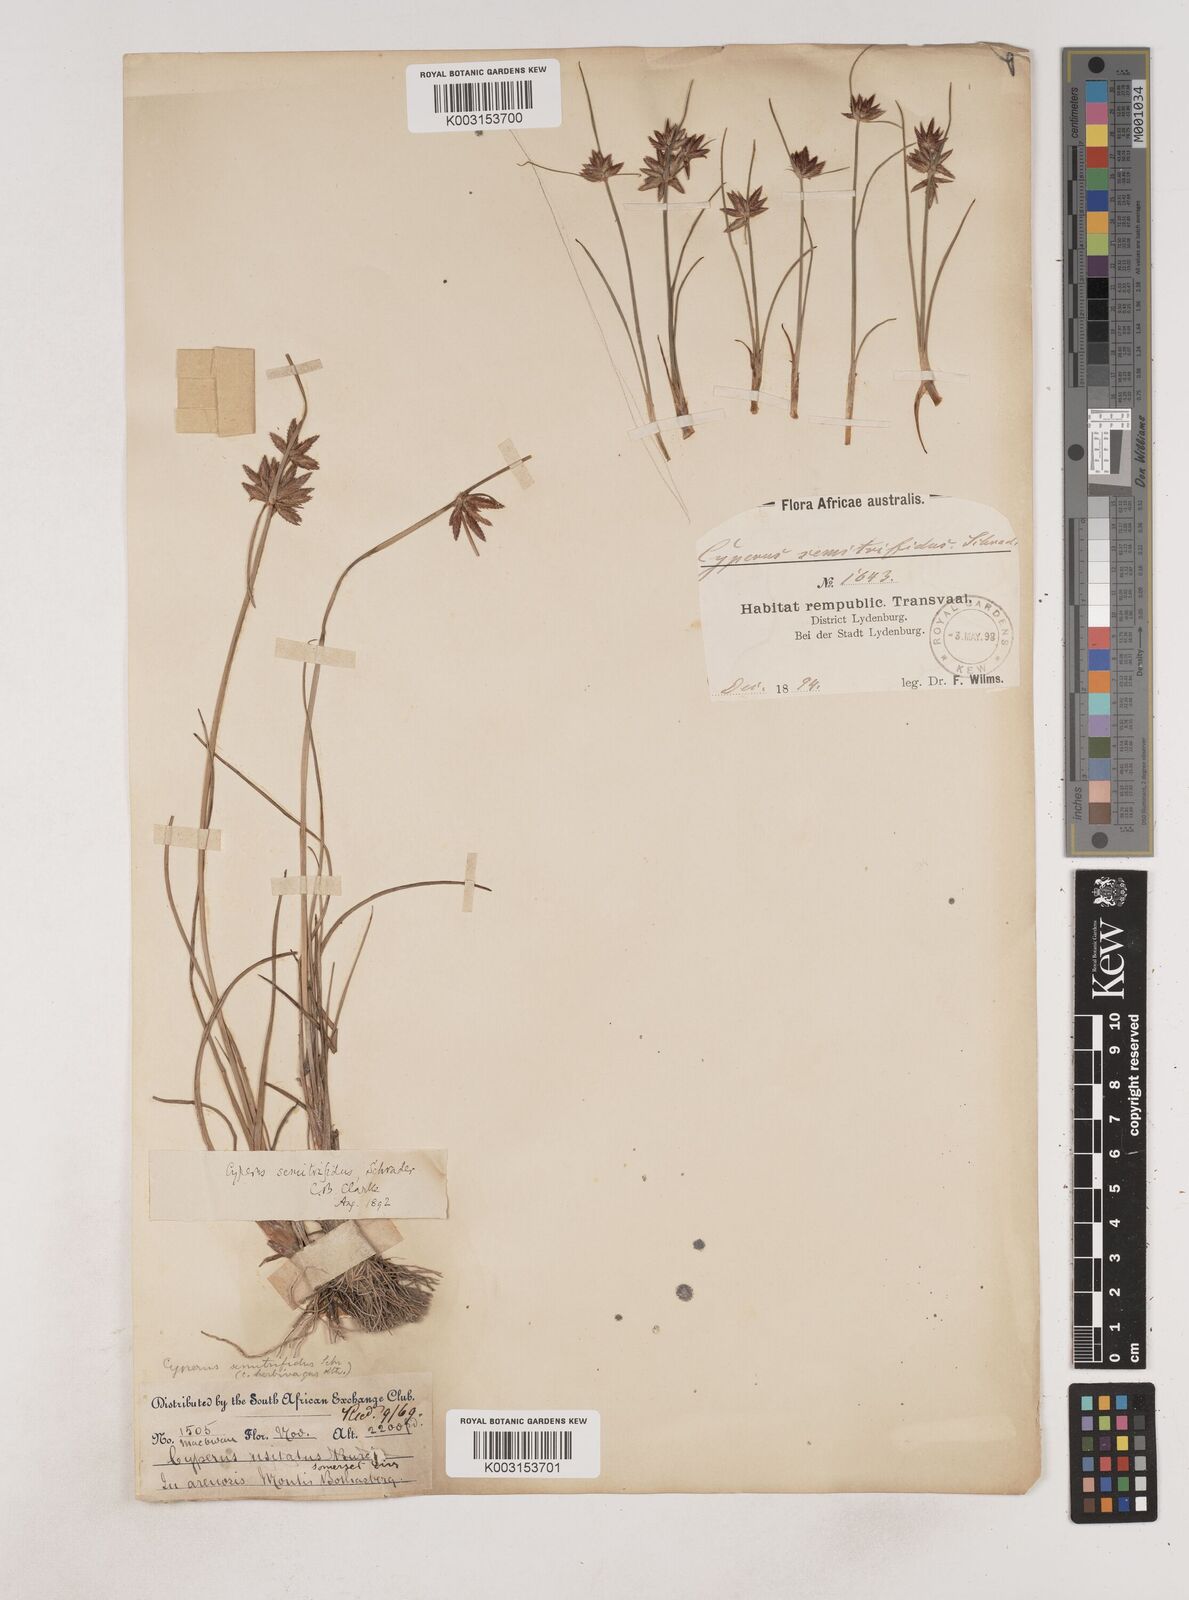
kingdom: Plantae
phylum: Tracheophyta
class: Liliopsida
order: Poales
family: Cyperaceae
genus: Cyperus
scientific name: Cyperus semitrifidus
